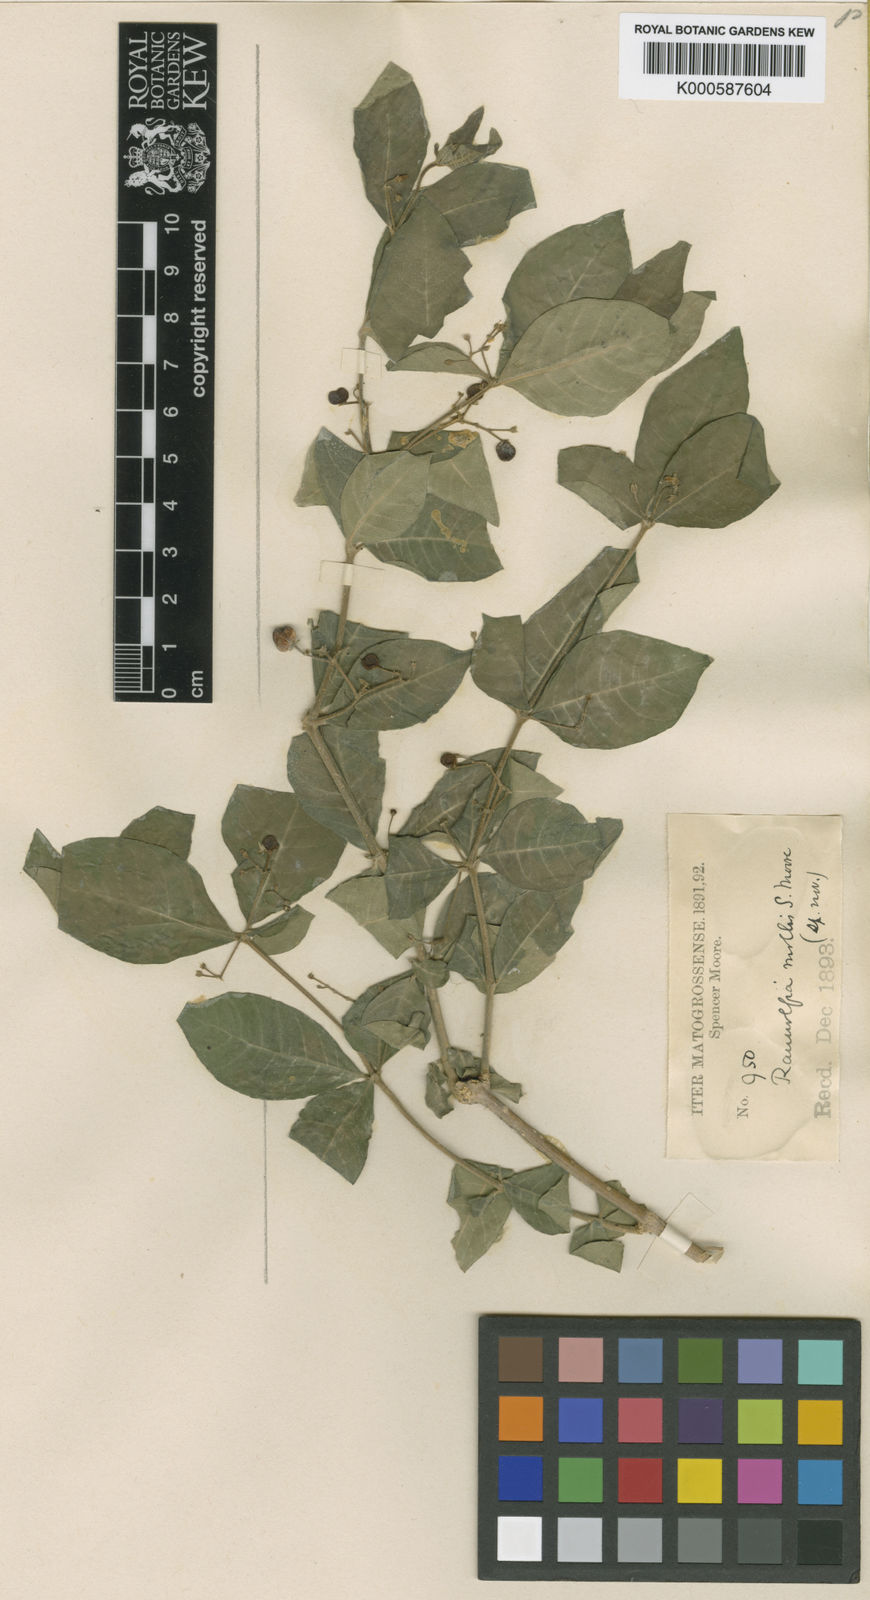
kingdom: Plantae
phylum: Tracheophyta
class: Magnoliopsida
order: Gentianales
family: Apocynaceae
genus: Rauvolfia
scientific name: Rauvolfia ligustrina
